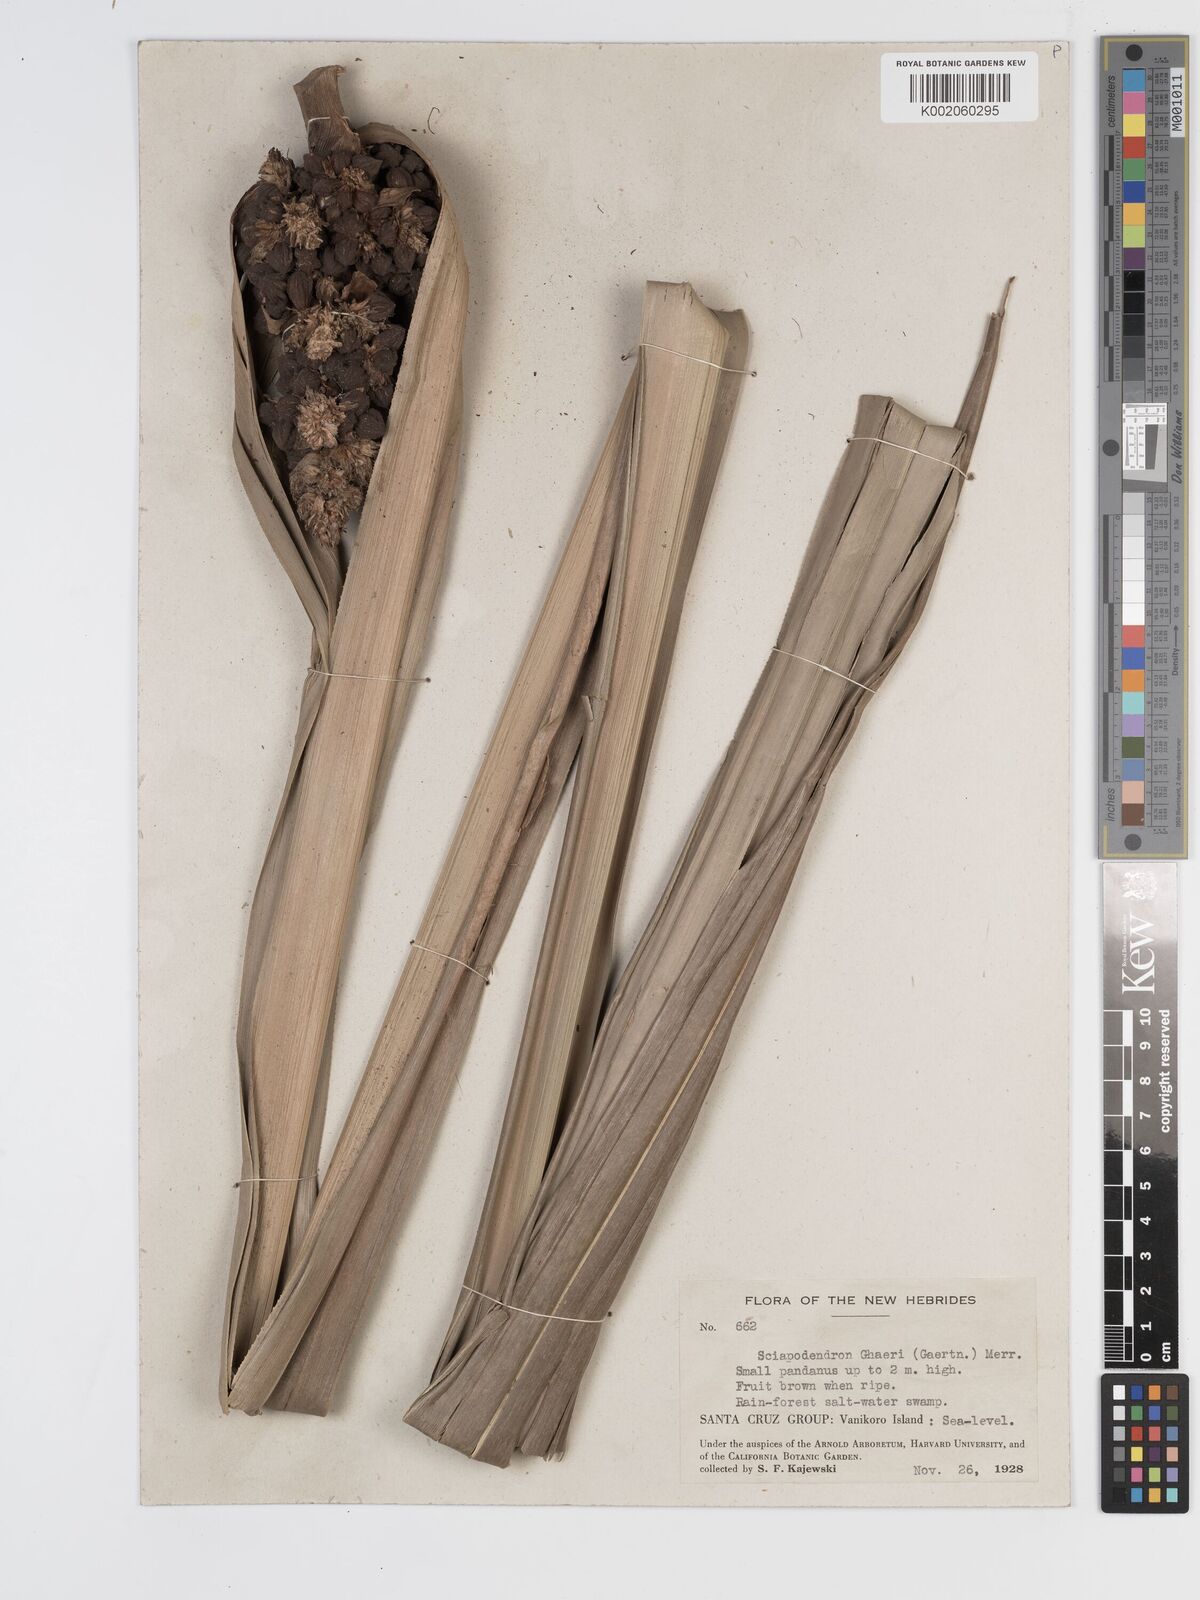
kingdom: Plantae
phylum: Tracheophyta
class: Liliopsida
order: Poales
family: Cyperaceae
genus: Scirpodendron
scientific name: Scirpodendron ghaeri
